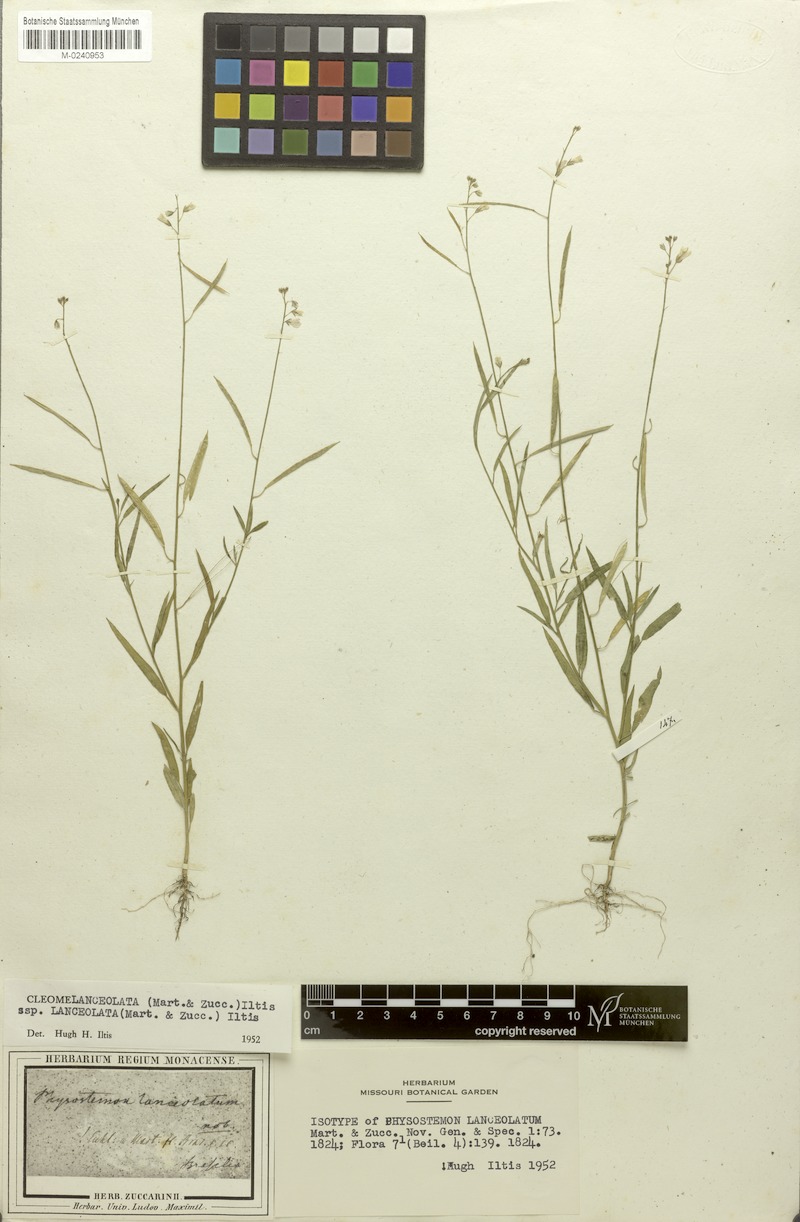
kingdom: Plantae
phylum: Tracheophyta
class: Magnoliopsida
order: Brassicales
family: Cleomaceae
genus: Physostemon
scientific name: Physostemon lanceolatus
